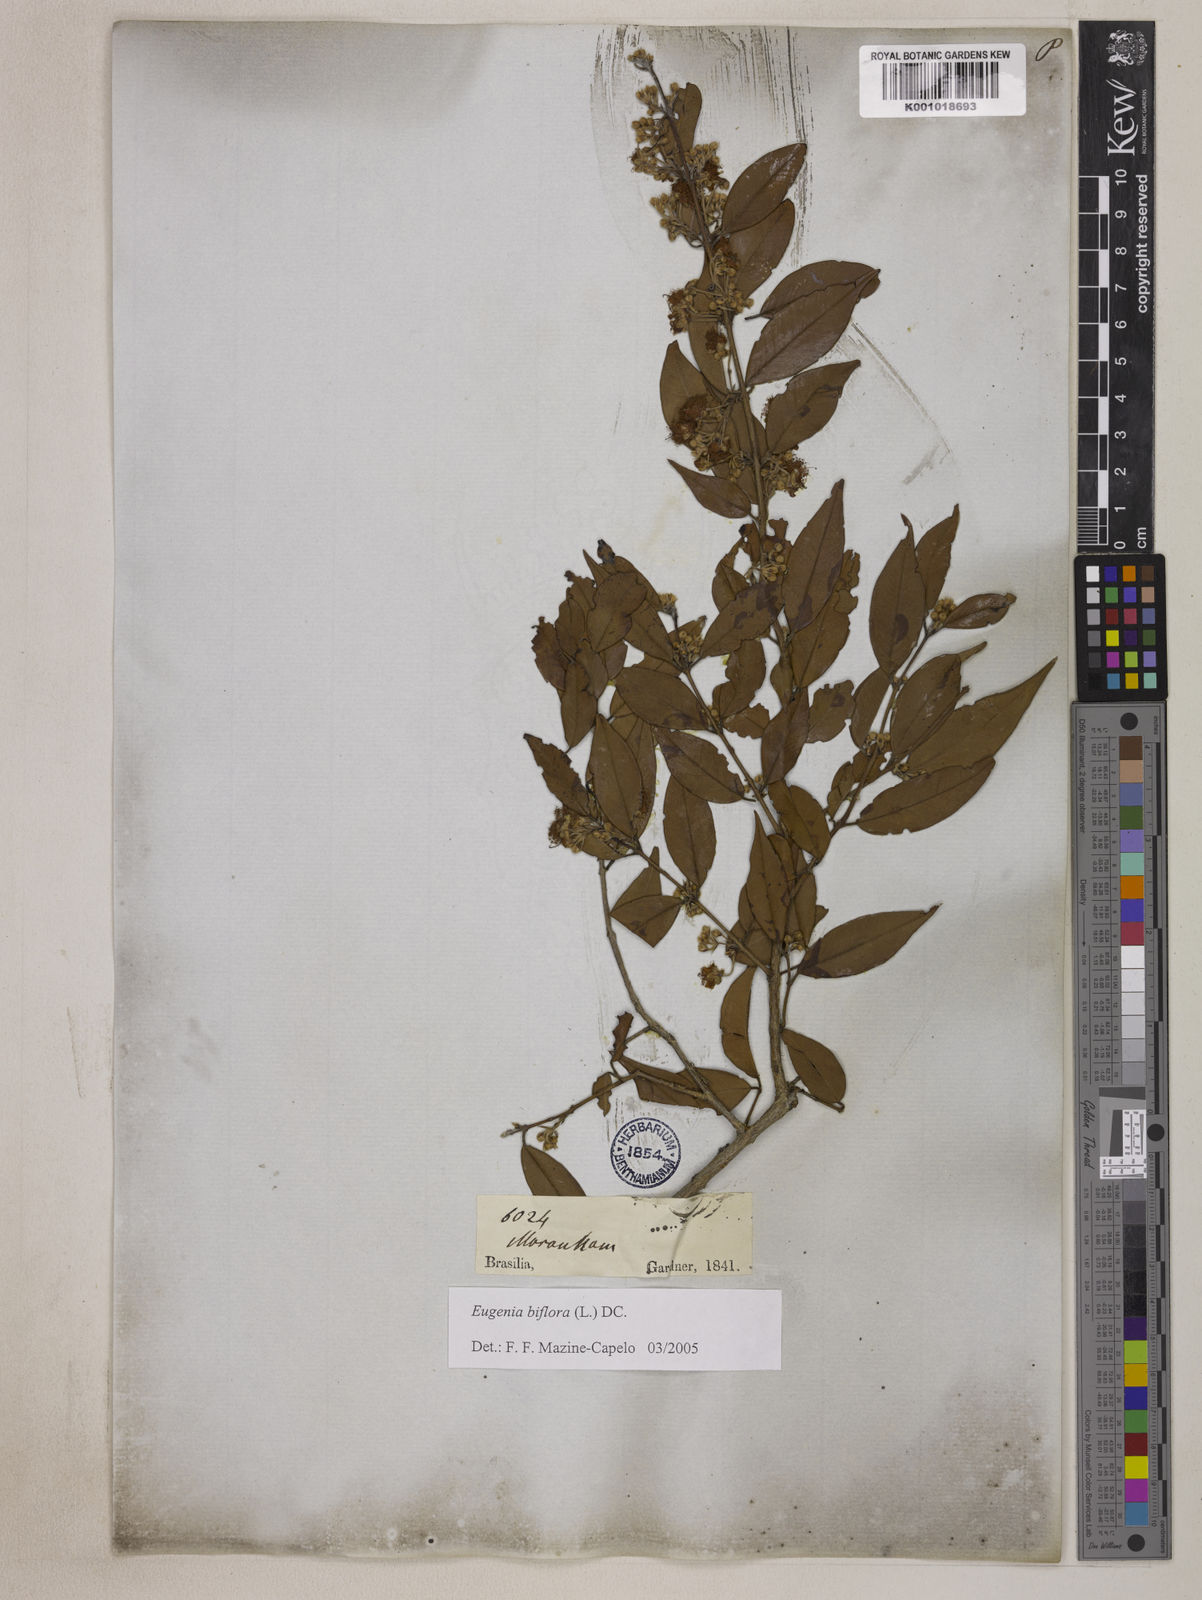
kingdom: Plantae
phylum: Tracheophyta
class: Magnoliopsida
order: Myrtales
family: Myrtaceae
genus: Eugenia
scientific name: Eugenia biflora
